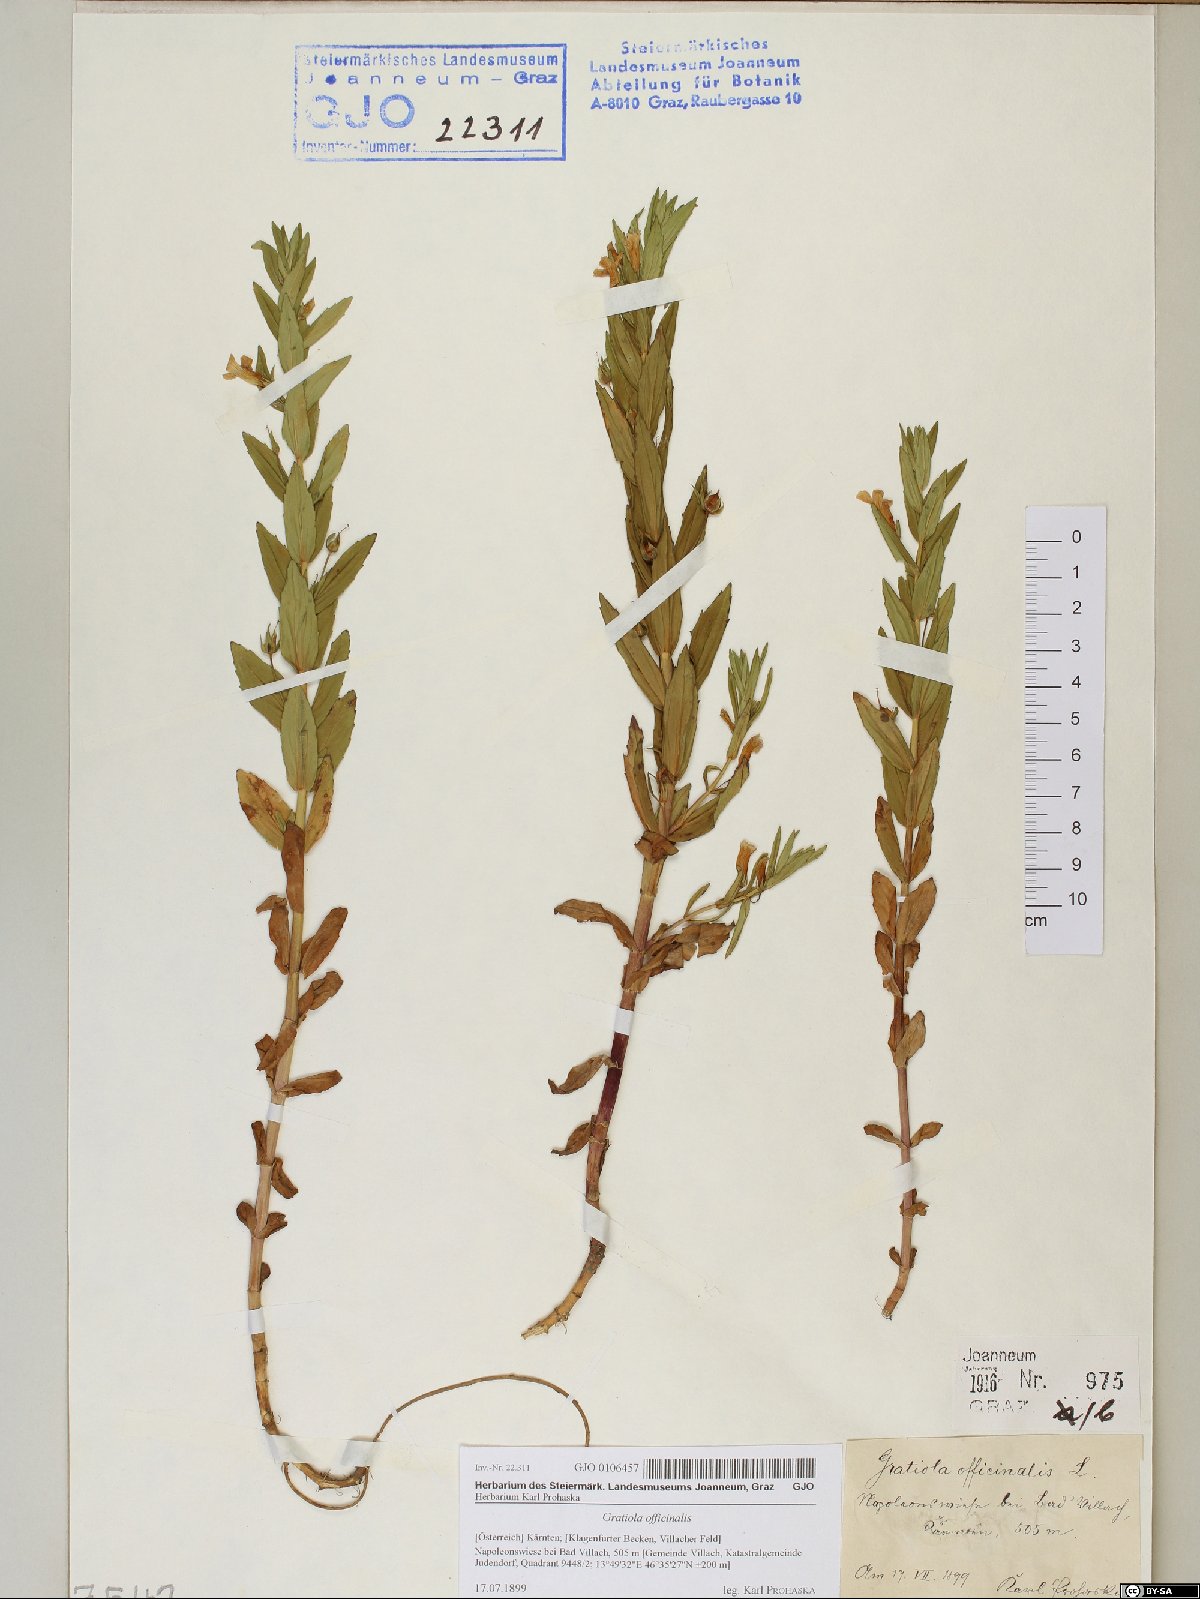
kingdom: Plantae
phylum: Tracheophyta
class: Magnoliopsida
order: Lamiales
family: Plantaginaceae
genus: Gratiola
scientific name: Gratiola officinalis
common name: Gratiola
